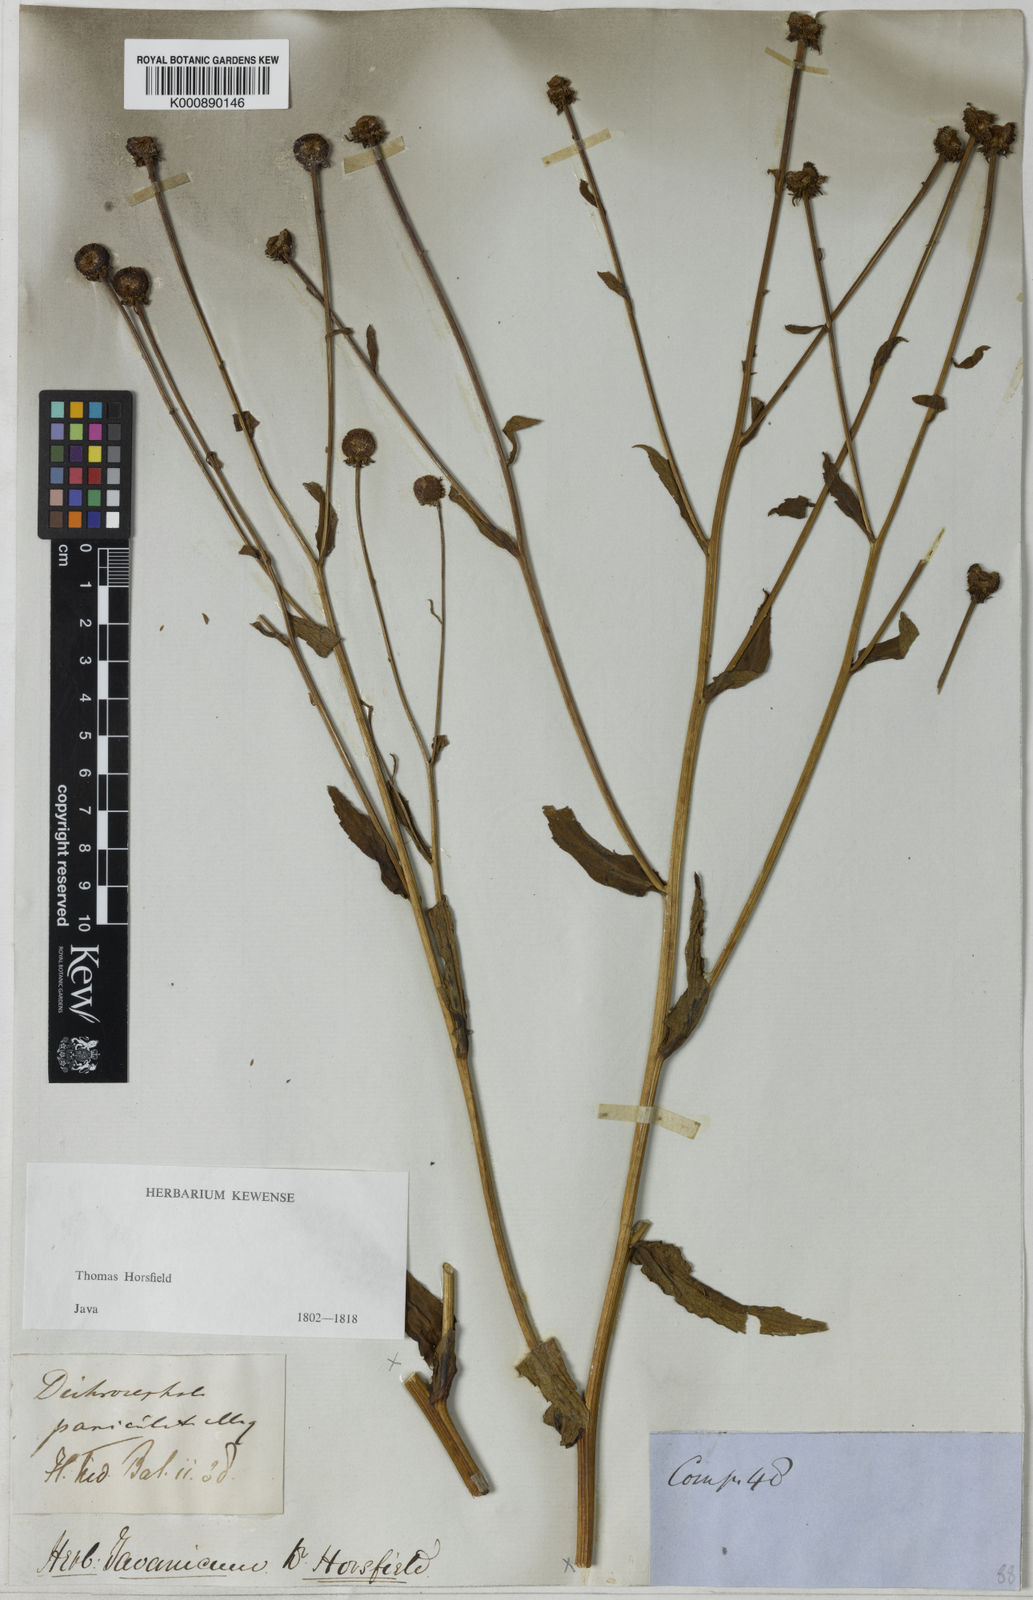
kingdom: Plantae
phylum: Tracheophyta
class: Magnoliopsida
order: Asterales
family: Asteraceae
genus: Myriactis
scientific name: Myriactis javanica
